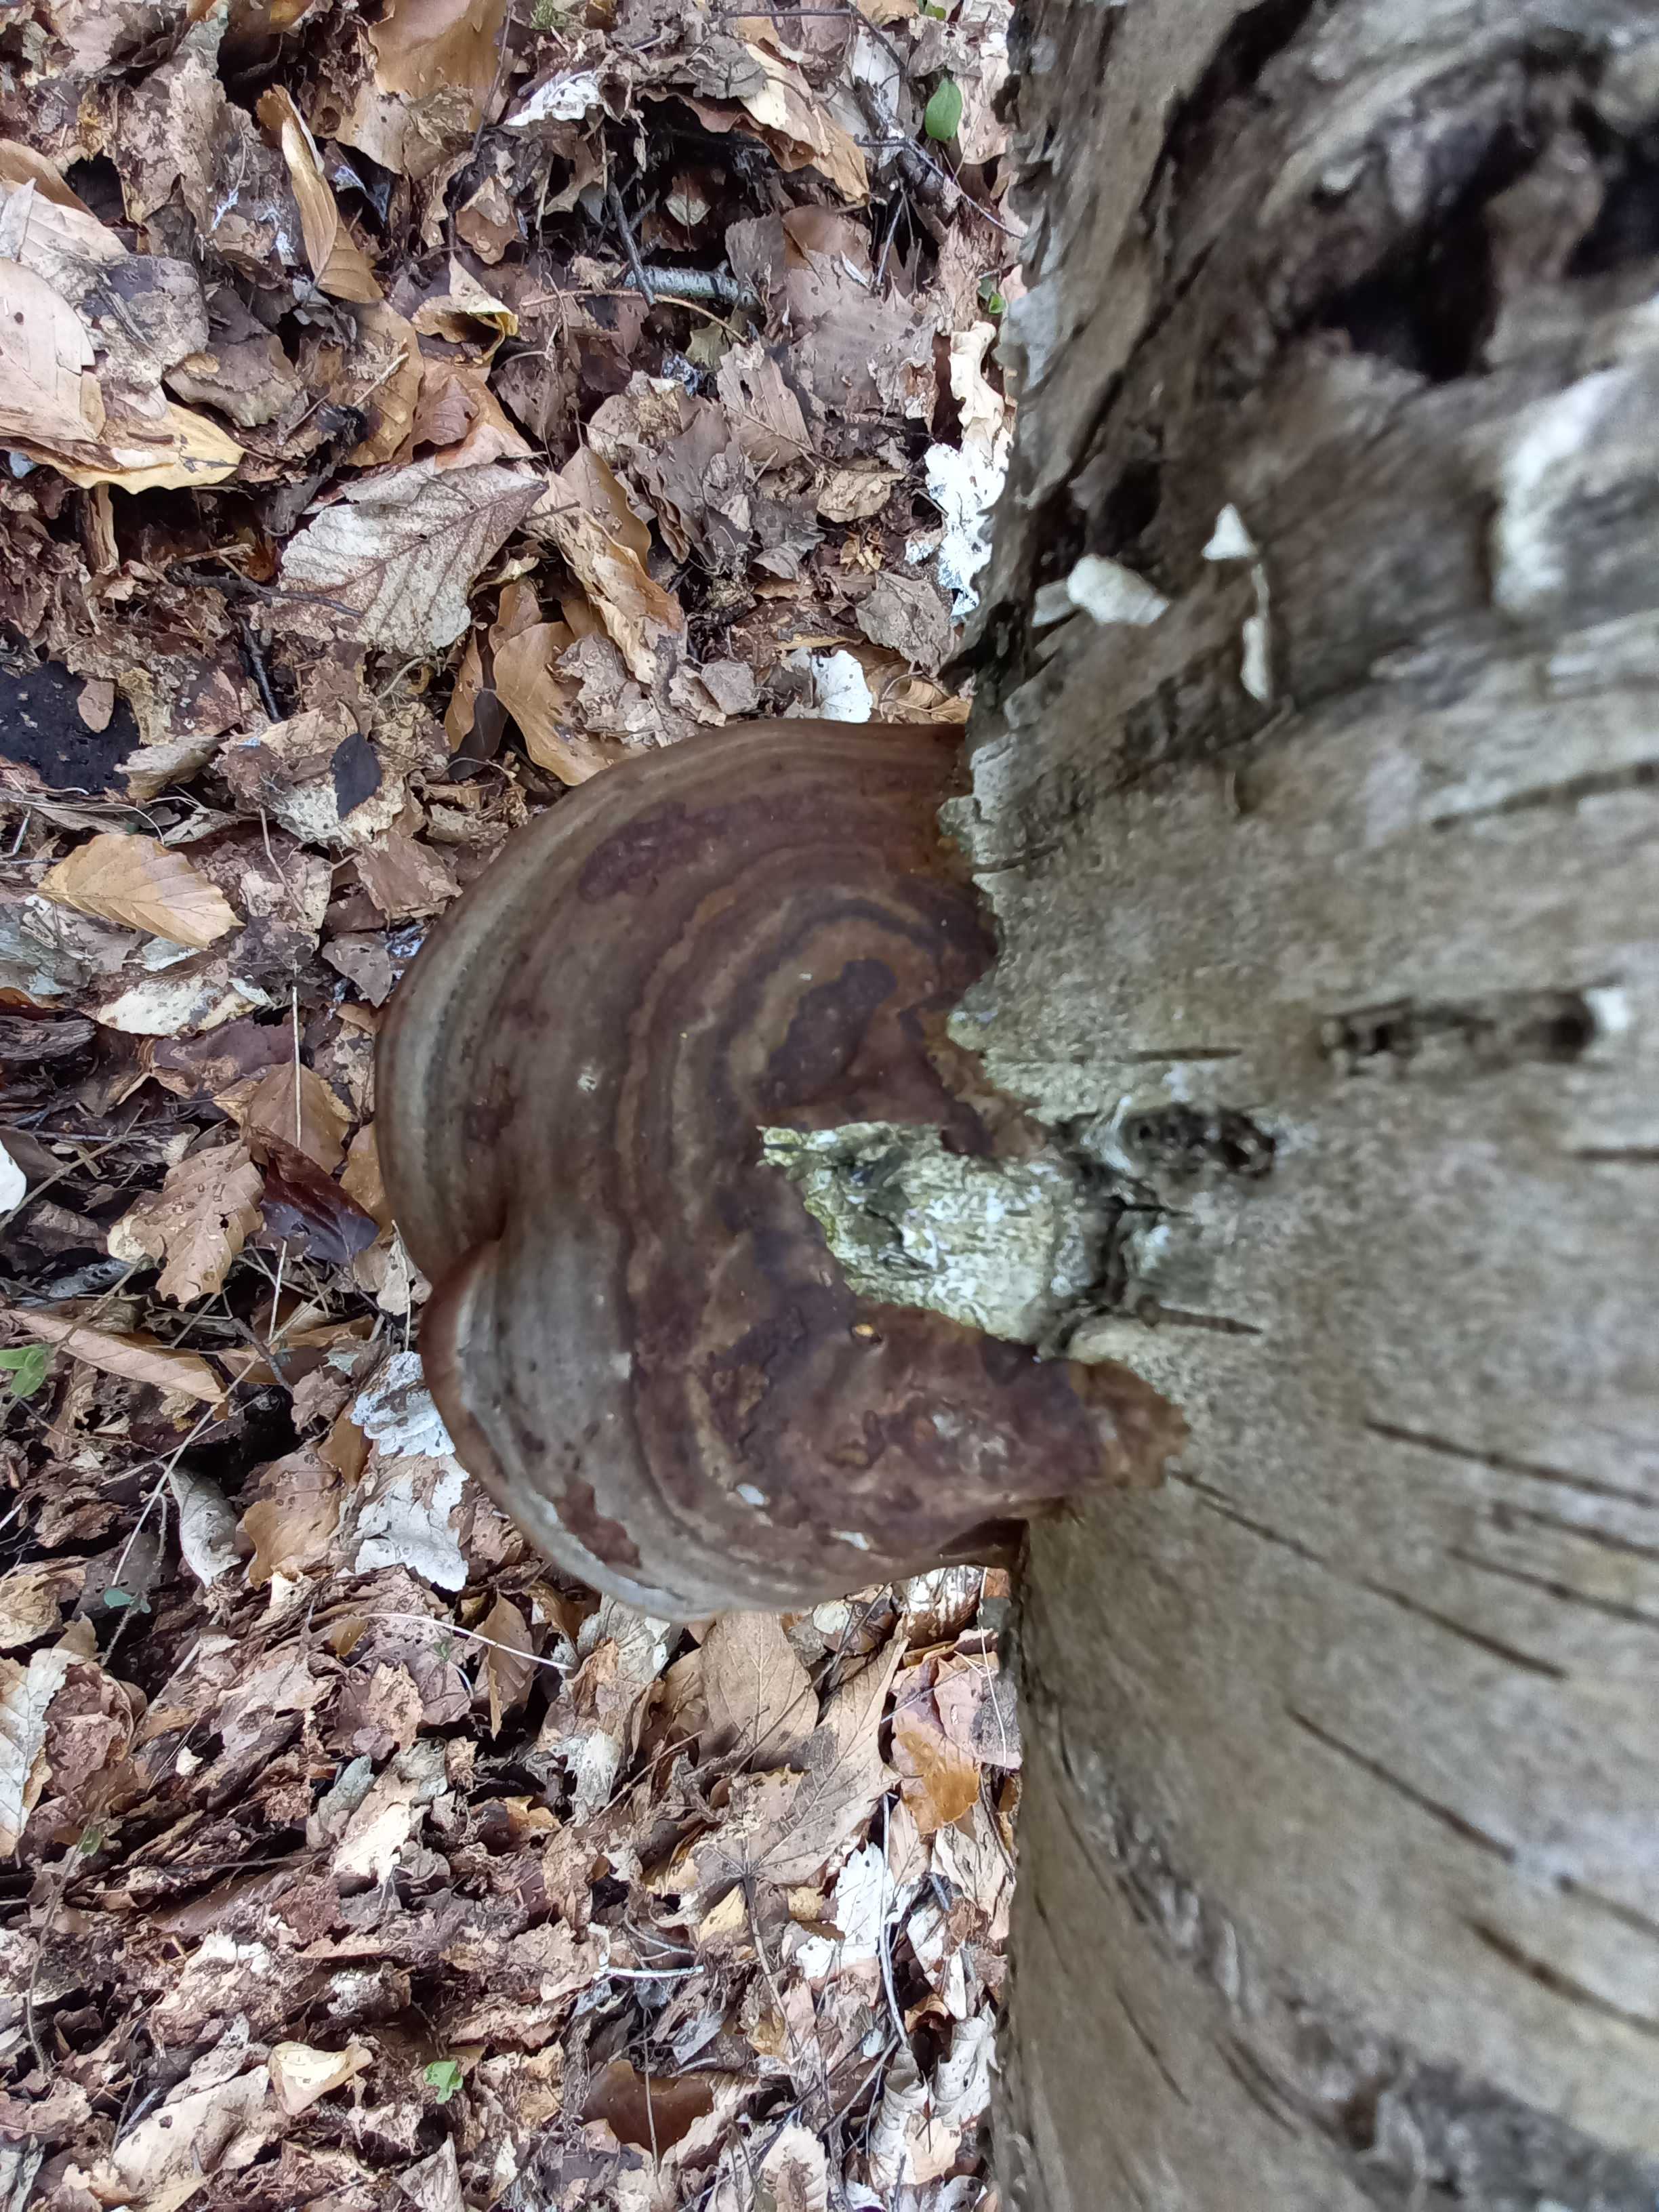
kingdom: Fungi
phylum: Basidiomycota
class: Agaricomycetes
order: Polyporales
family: Polyporaceae
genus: Fomes
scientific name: Fomes fomentarius
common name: tøndersvamp
